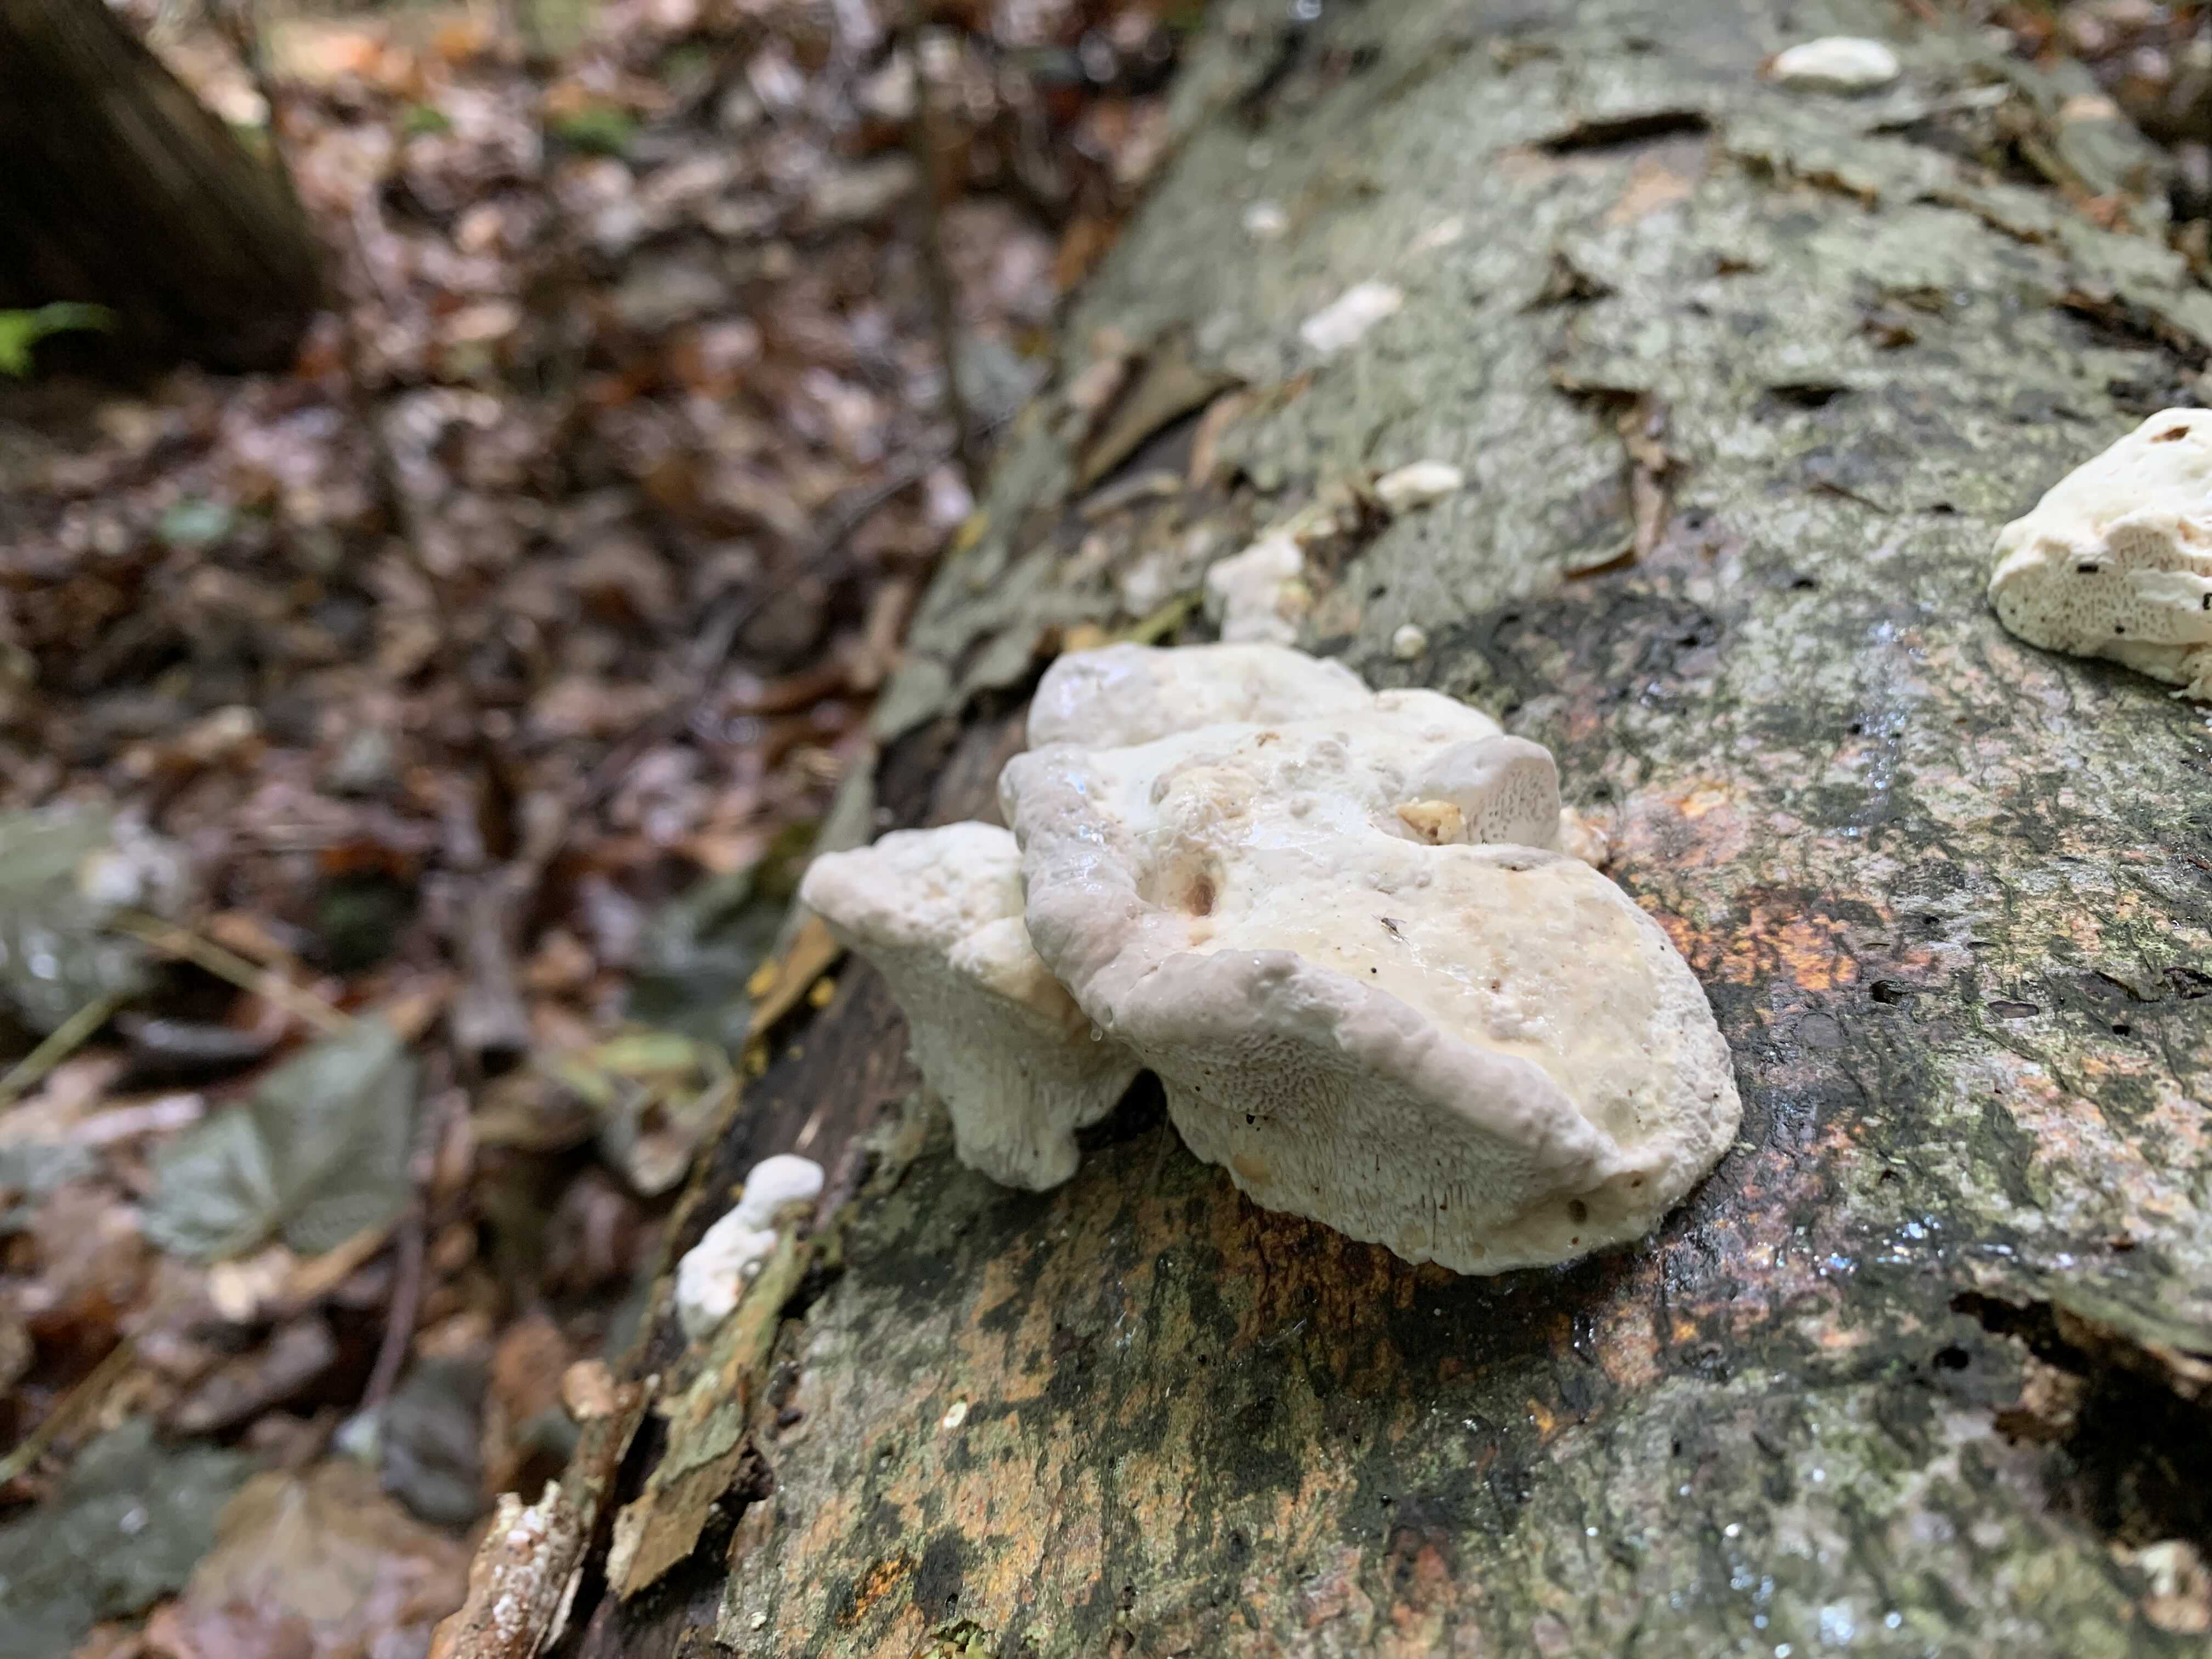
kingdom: Fungi
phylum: Basidiomycota
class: Agaricomycetes
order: Polyporales
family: Polyporaceae
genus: Trametes
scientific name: Trametes gibbosa
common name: puklet læderporesvamp
